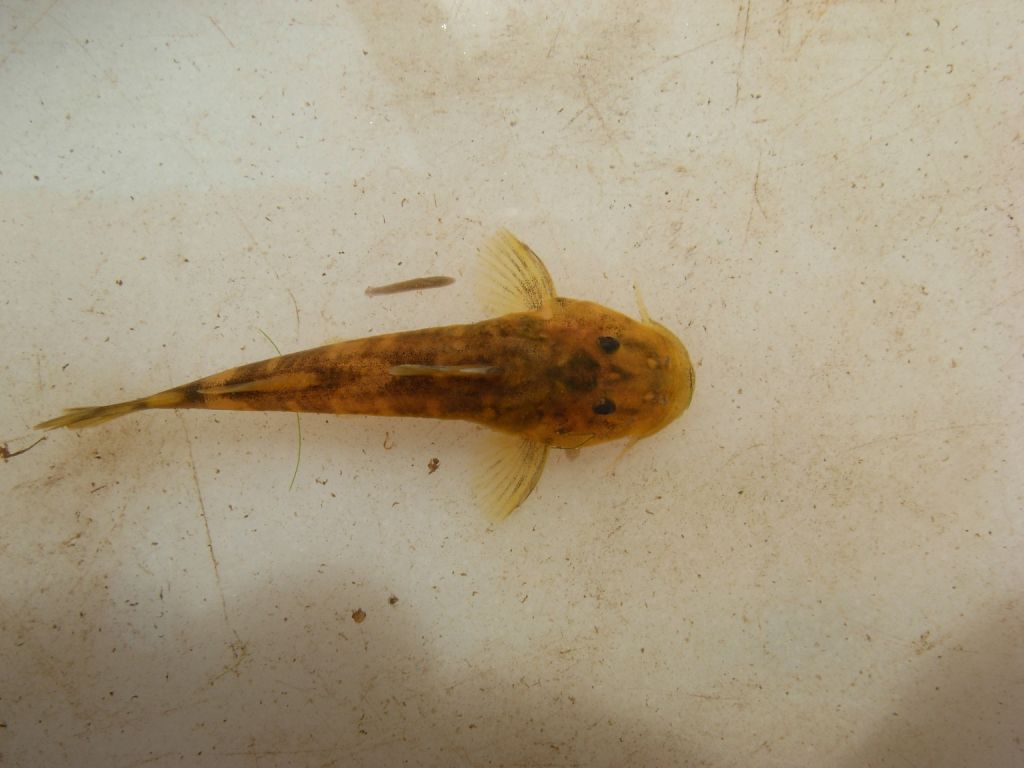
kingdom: Animalia
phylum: Chordata
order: Siluriformes
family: Mochokidae
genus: Chiloglanis
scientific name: Chiloglanis pretoriae
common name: Shortspine catlet
